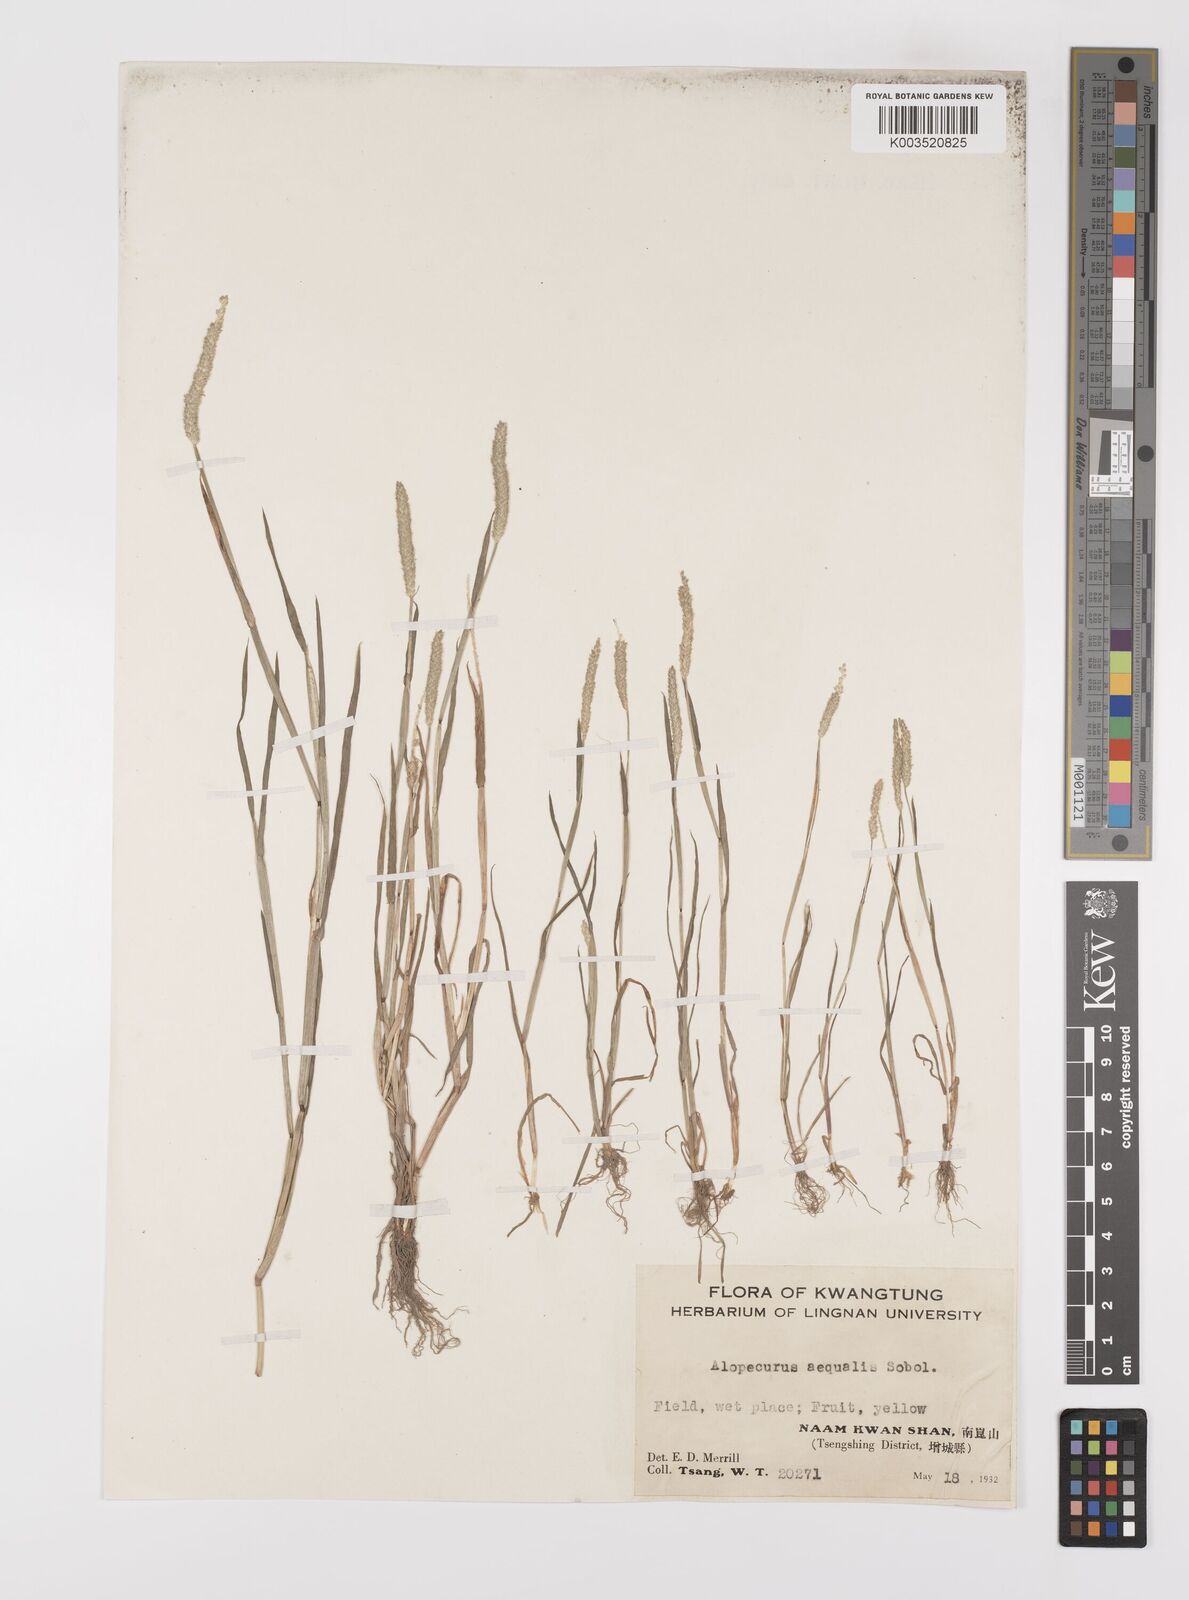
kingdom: Plantae
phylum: Tracheophyta
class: Liliopsida
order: Poales
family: Poaceae
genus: Alopecurus
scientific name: Alopecurus aequalis
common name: Orange foxtail
